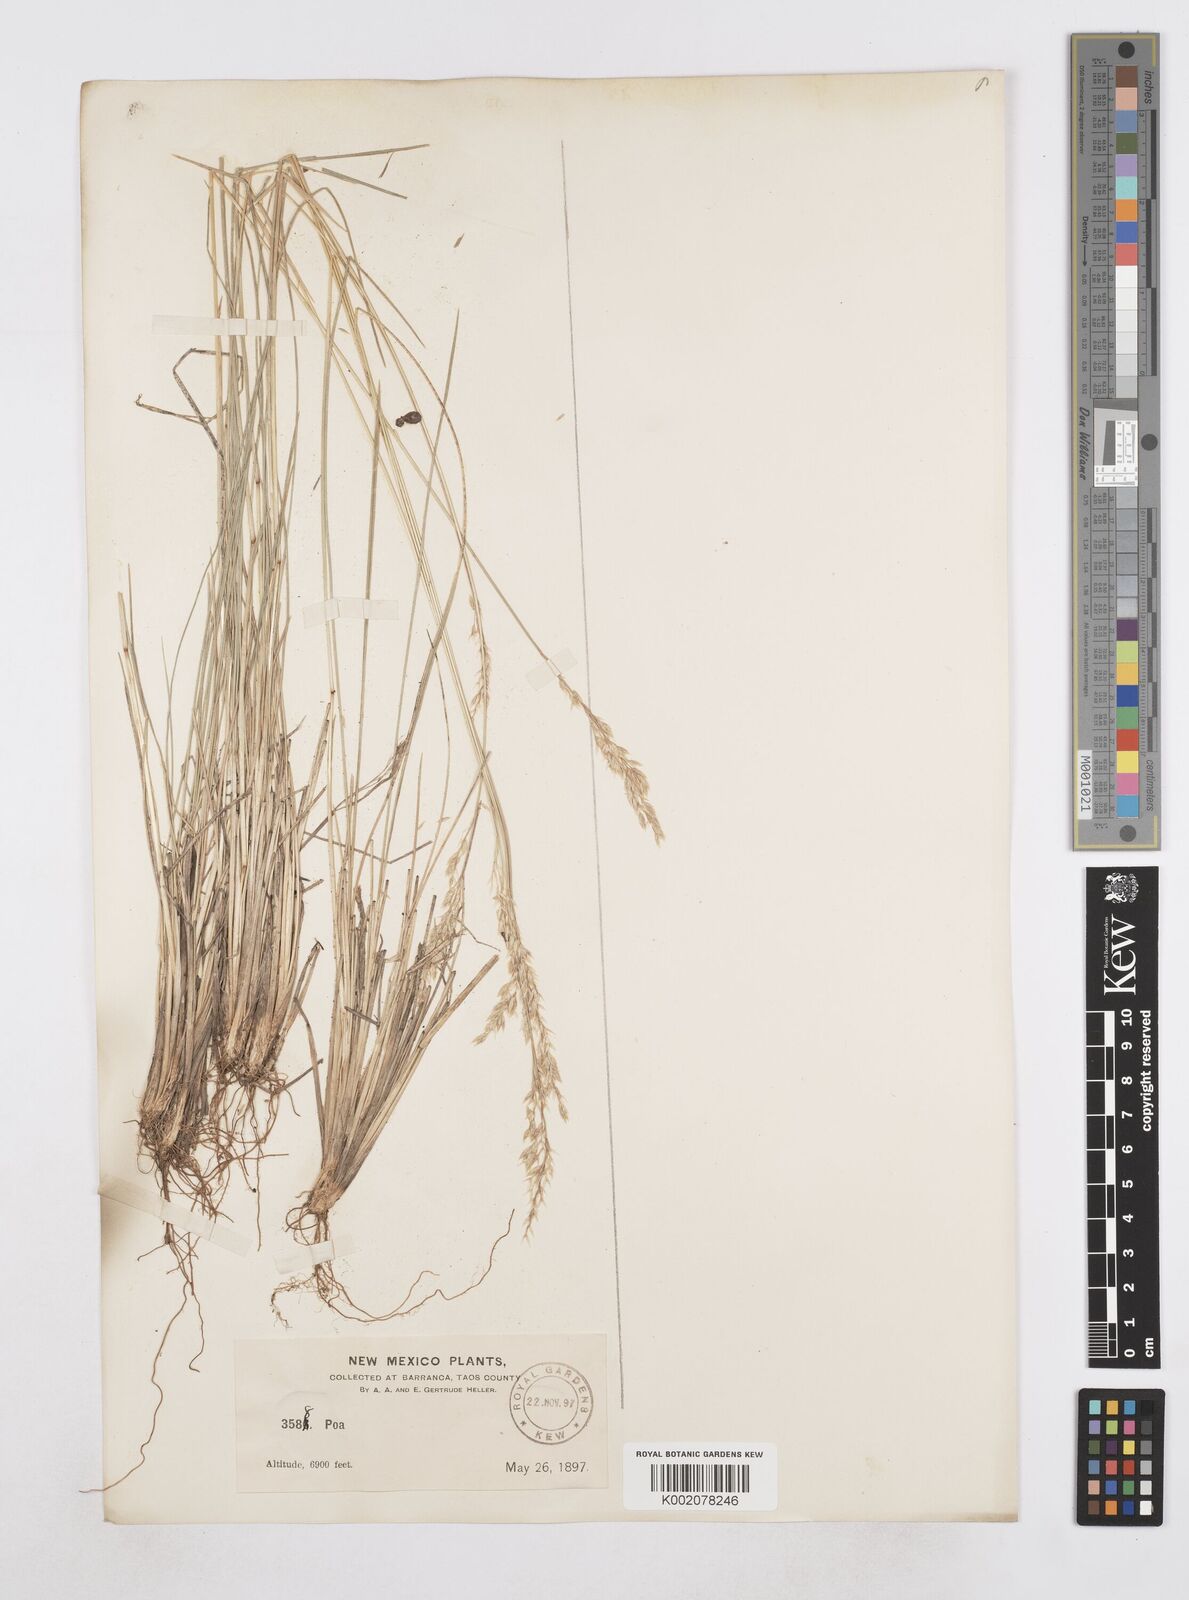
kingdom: Plantae
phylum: Tracheophyta
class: Liliopsida
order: Poales
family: Poaceae
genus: Poa
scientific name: Poa
